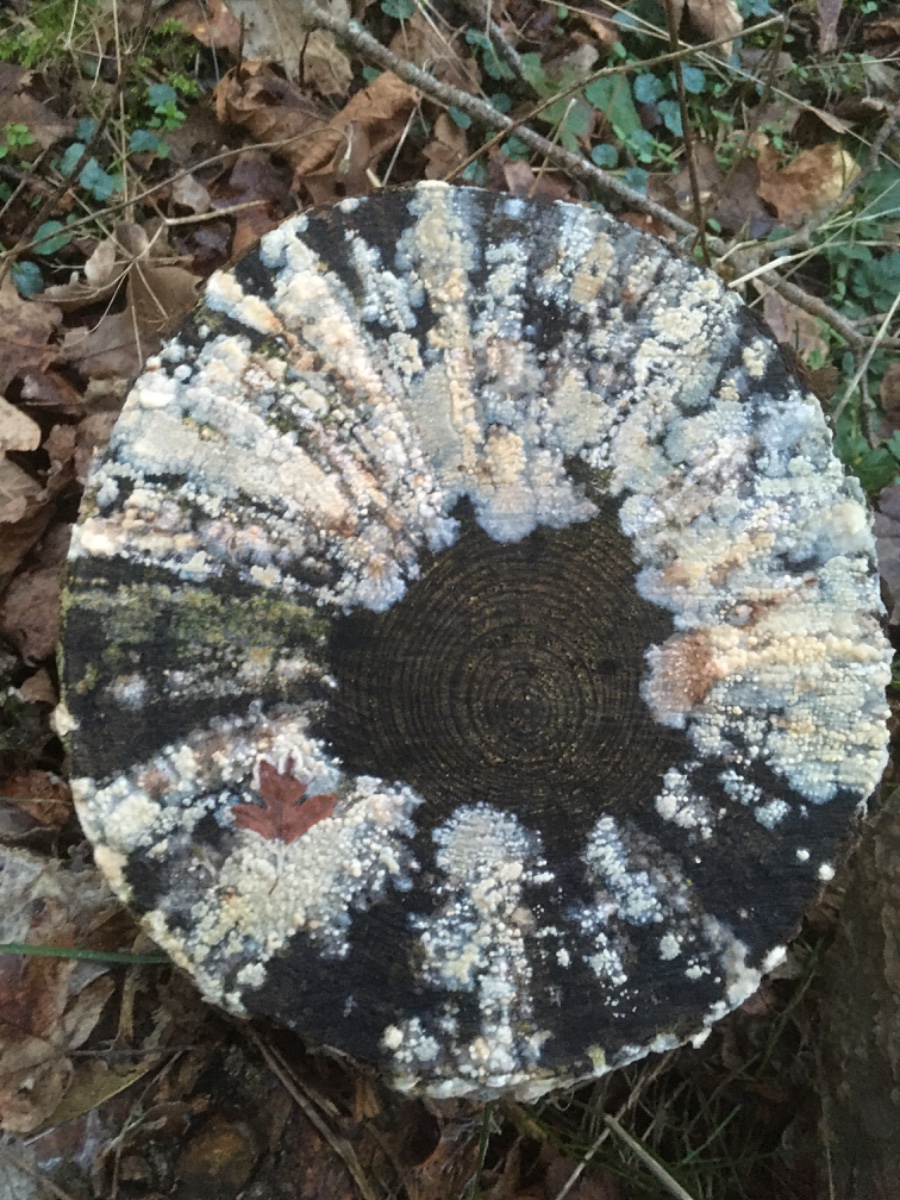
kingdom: Fungi
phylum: Basidiomycota
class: Agaricomycetes
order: Corticiales
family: Corticiaceae
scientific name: Corticiaceae
